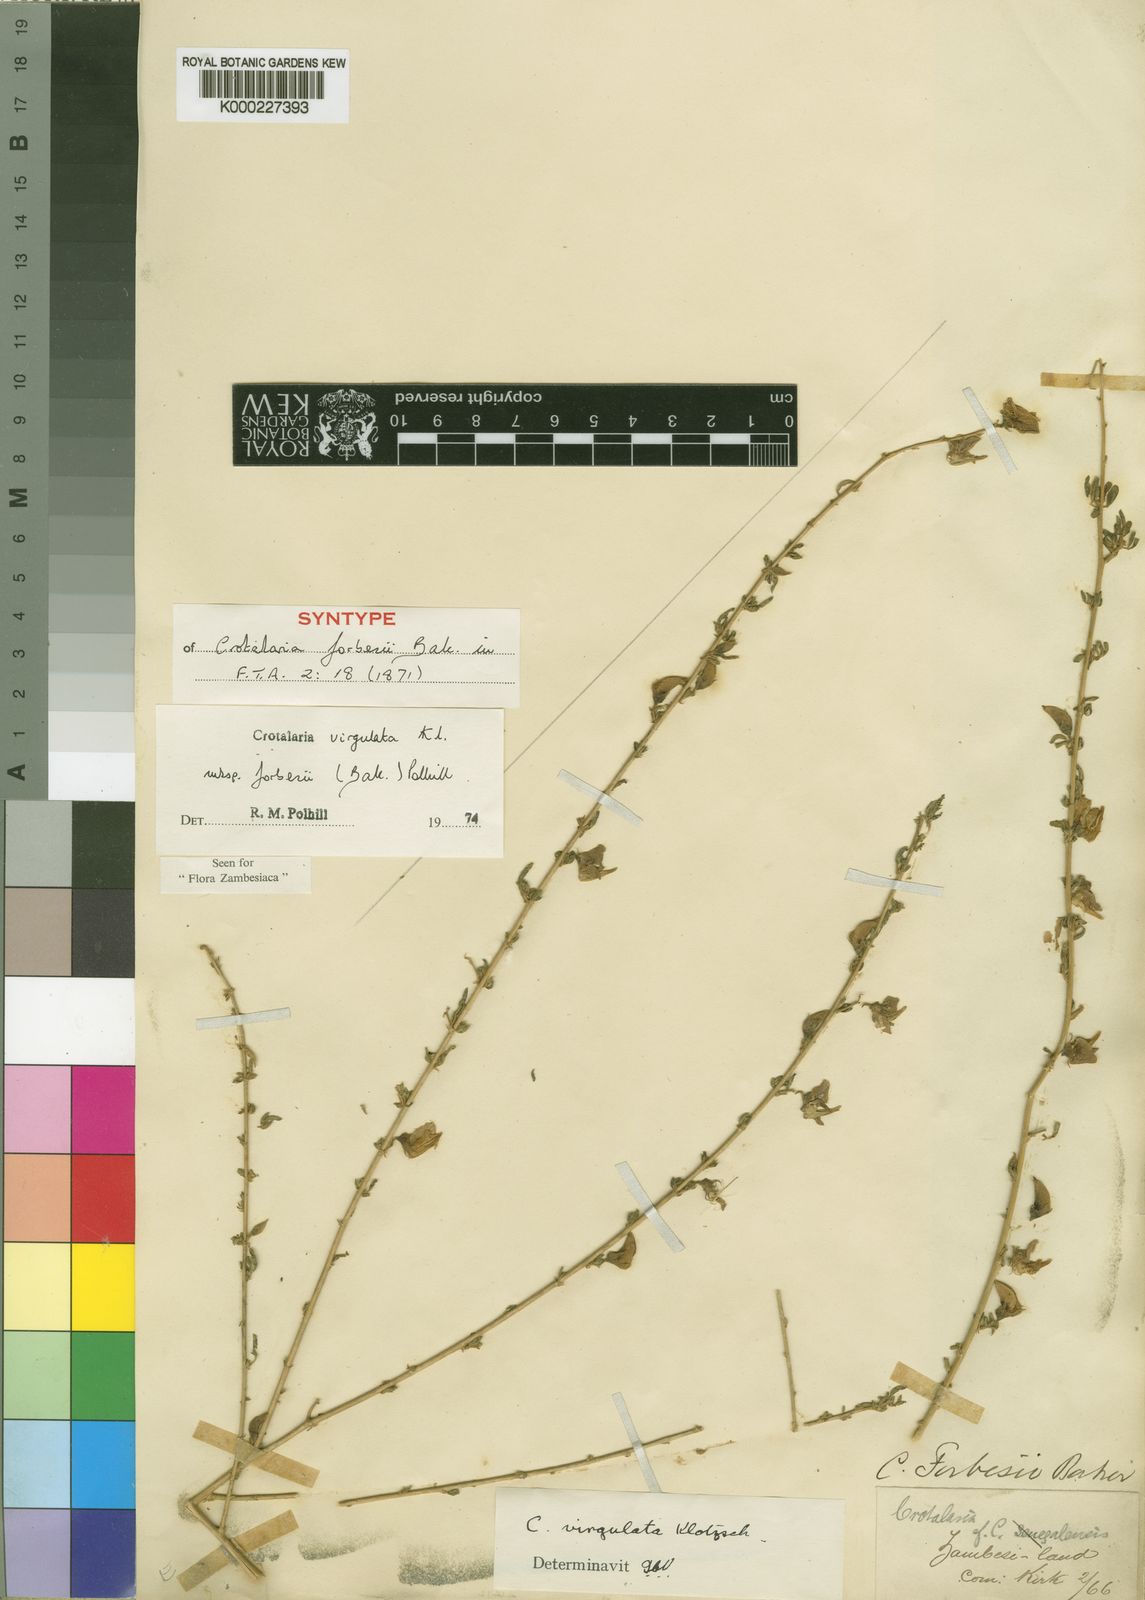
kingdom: Plantae
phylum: Tracheophyta
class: Magnoliopsida
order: Fabales
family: Fabaceae
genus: Crotalaria
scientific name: Crotalaria virgulata
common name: Thicket rattlebox
